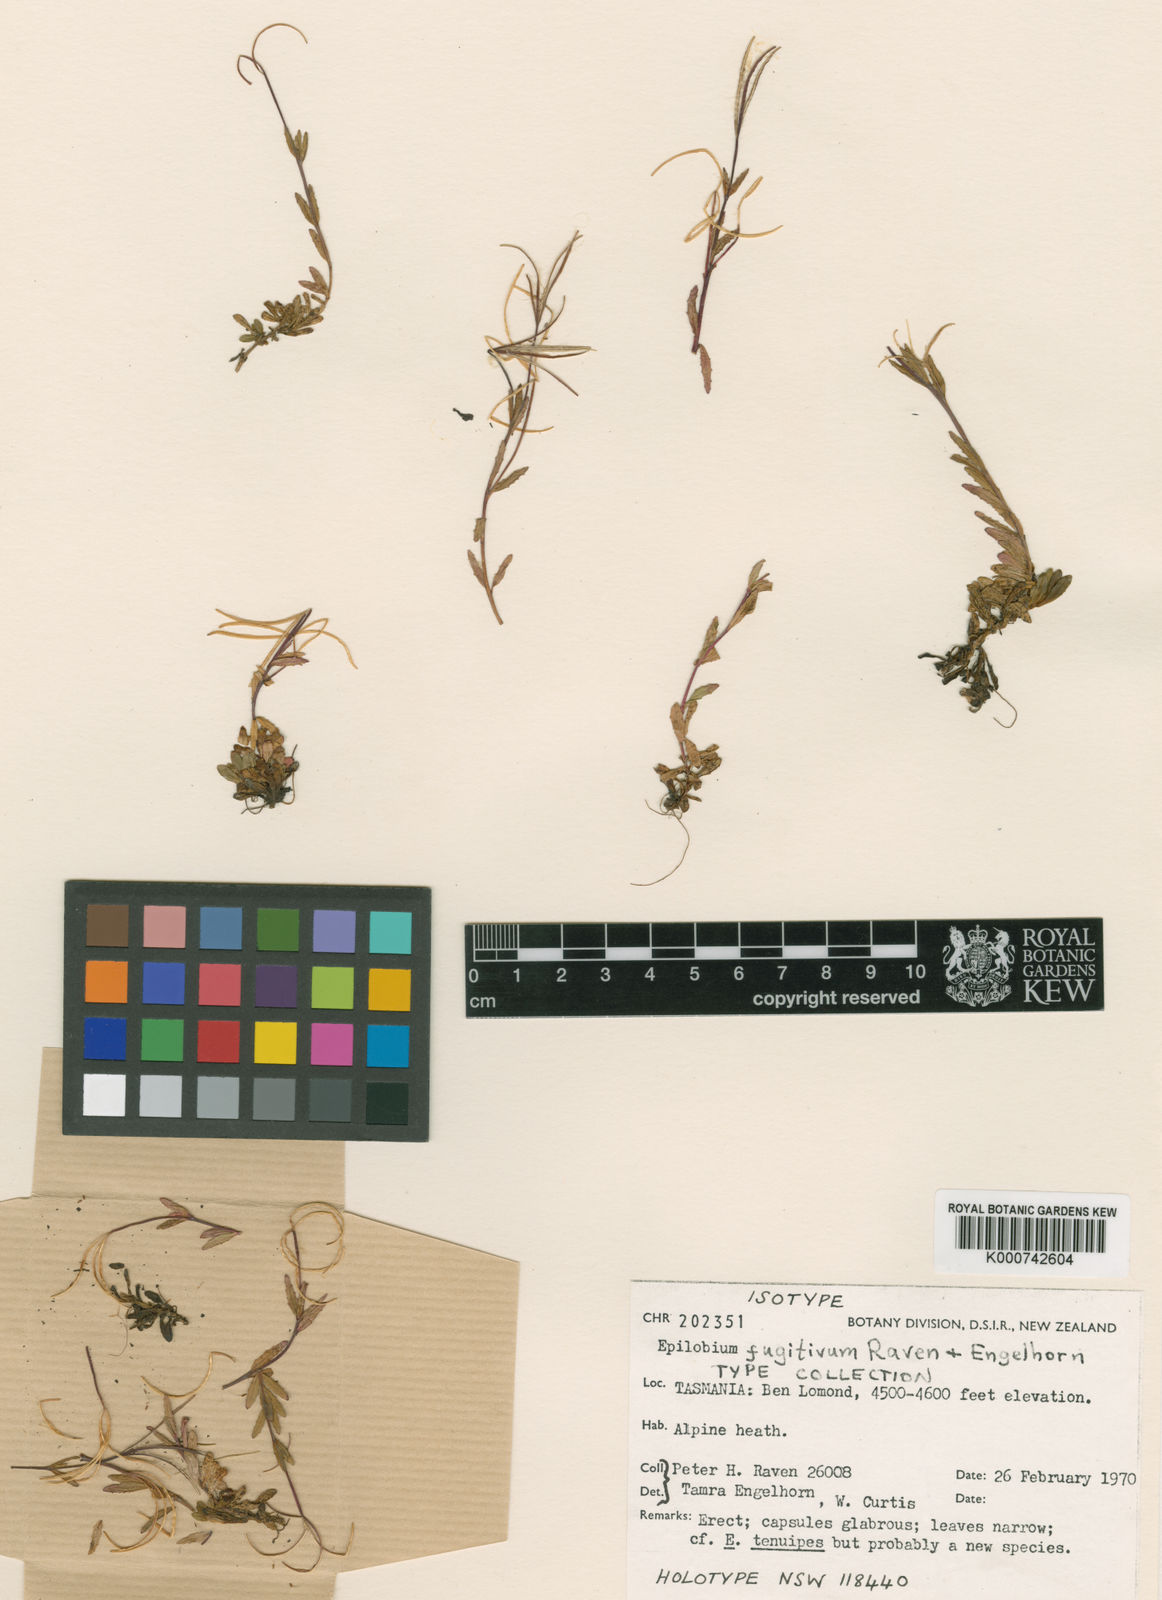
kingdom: Plantae
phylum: Tracheophyta
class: Magnoliopsida
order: Myrtales
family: Onagraceae
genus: Epilobium
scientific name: Epilobium fugitivum
